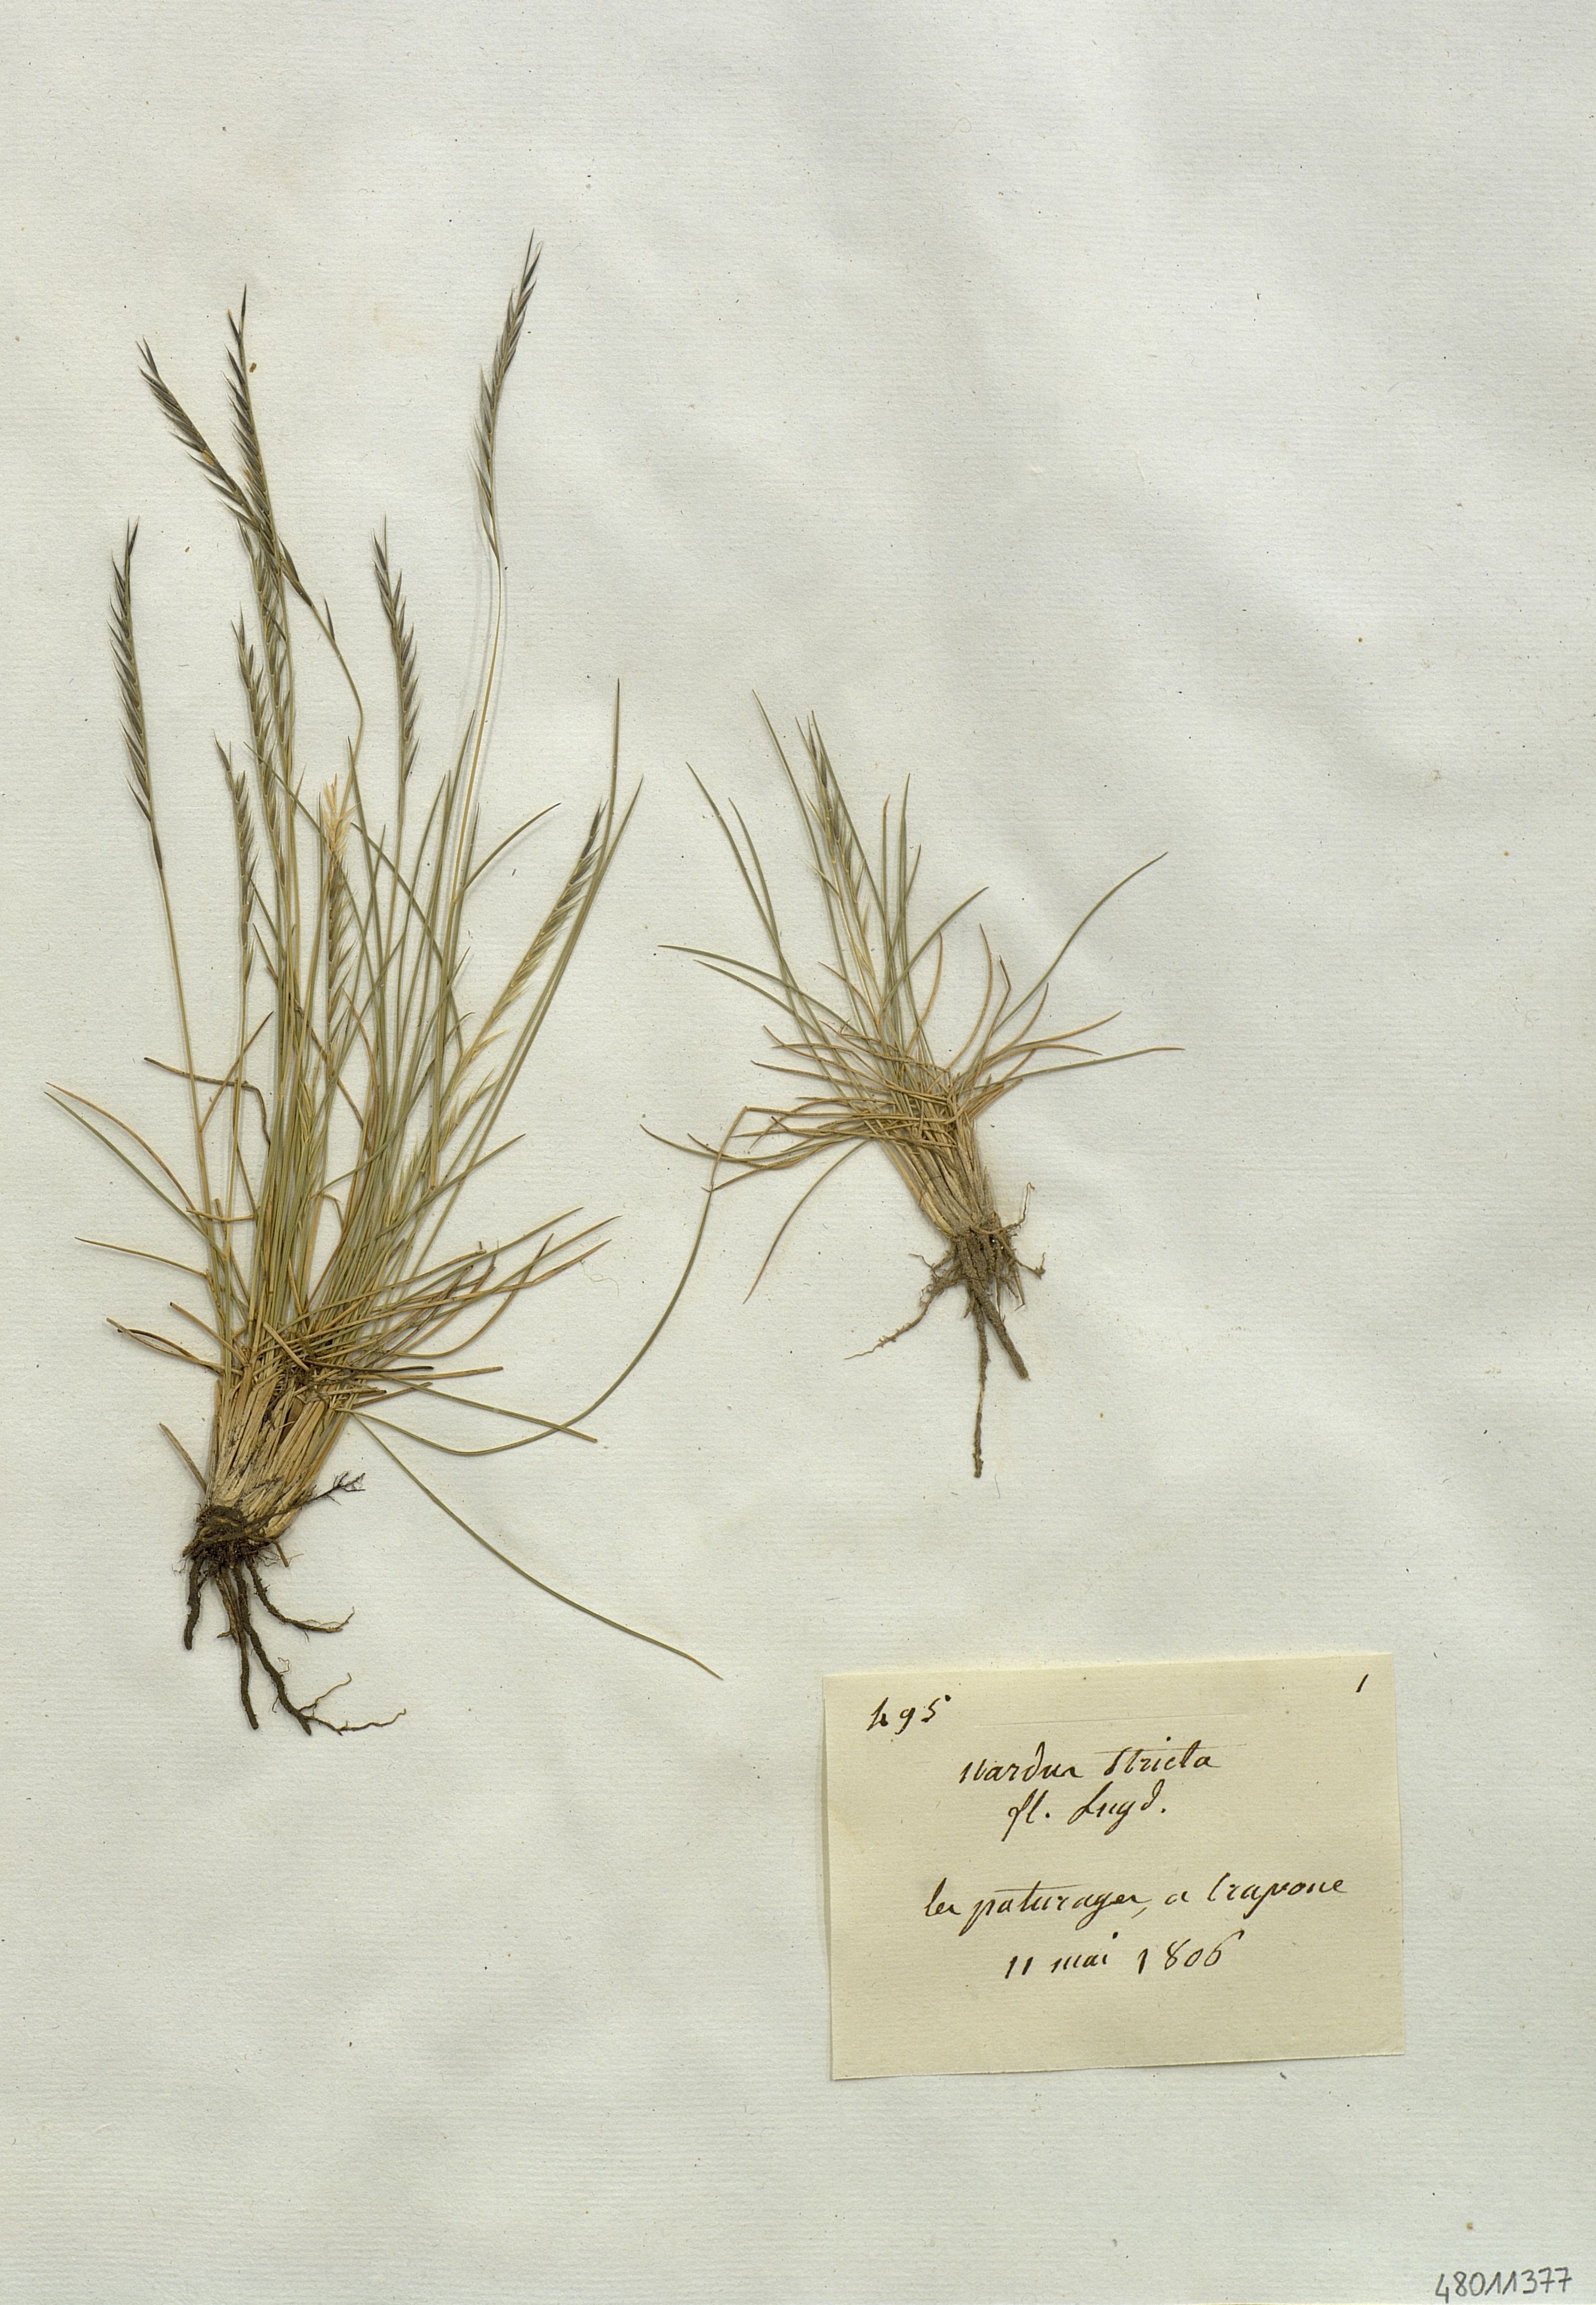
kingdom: Plantae
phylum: Tracheophyta
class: Liliopsida
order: Poales
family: Poaceae
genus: Nardus
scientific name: Nardus stricta
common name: Mat-grass
